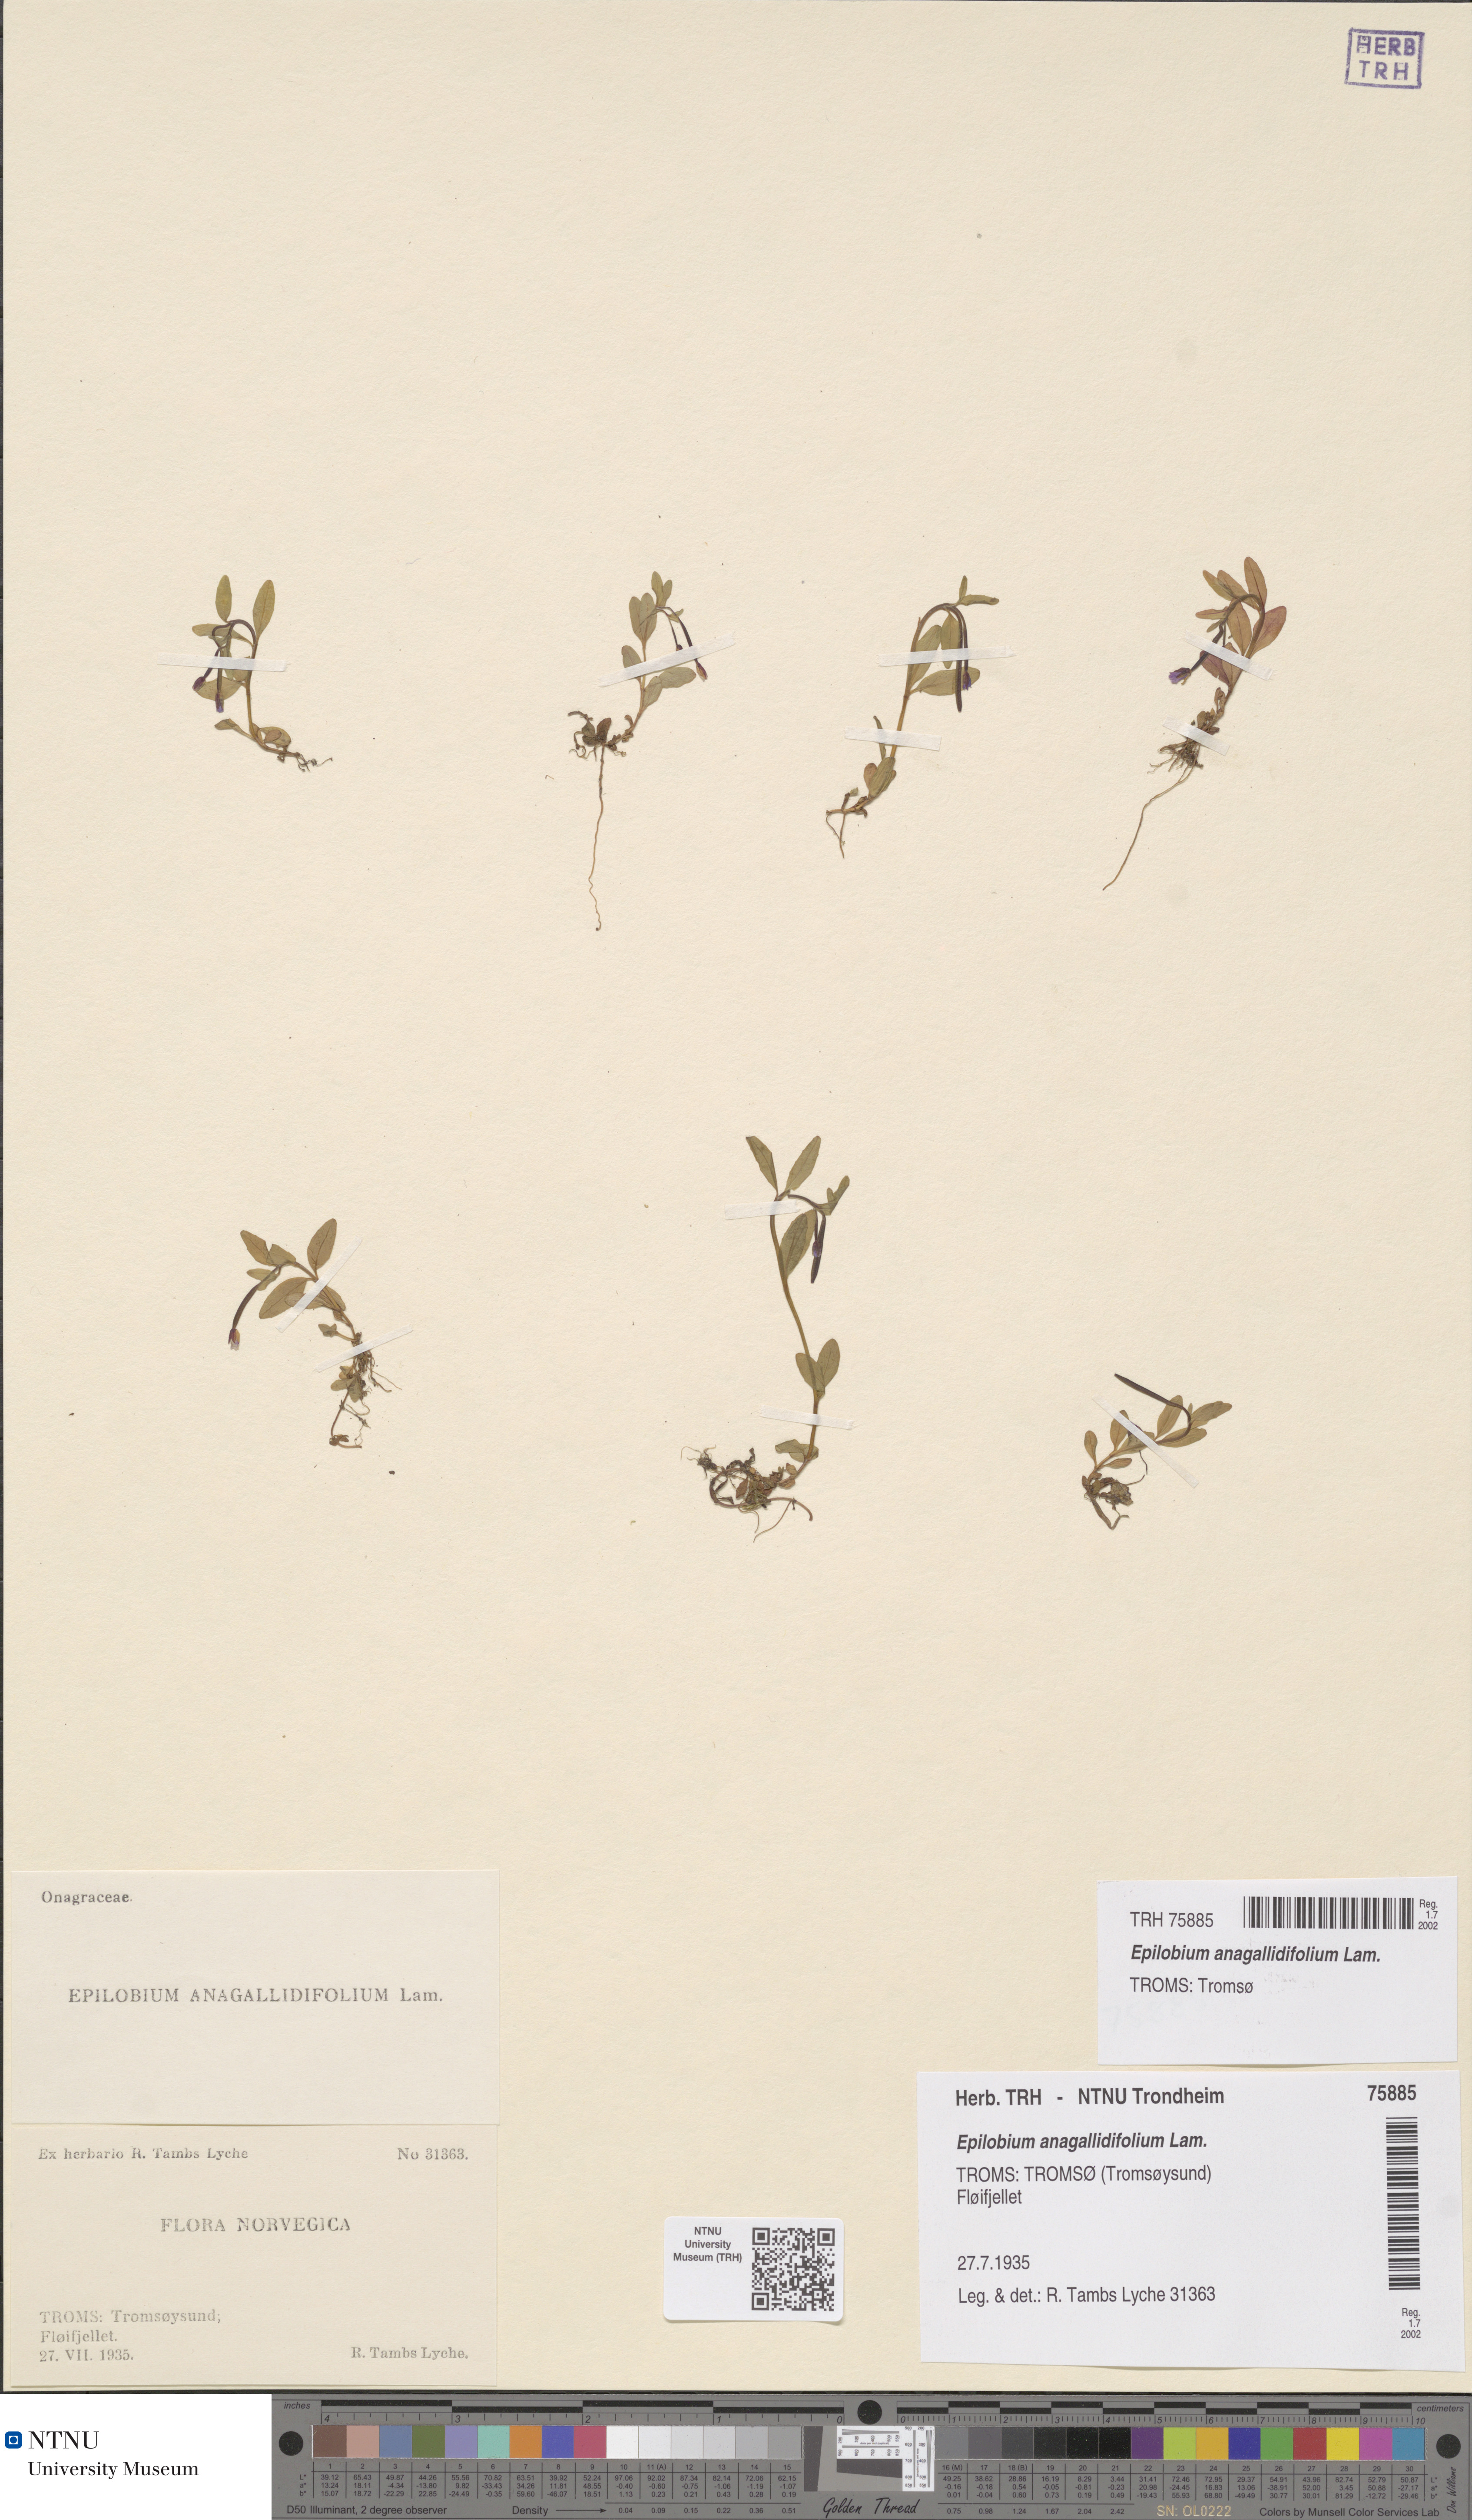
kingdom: Plantae
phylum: Tracheophyta
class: Magnoliopsida
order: Myrtales
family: Onagraceae
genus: Epilobium
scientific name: Epilobium anagallidifolium
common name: Alpine willowherb
